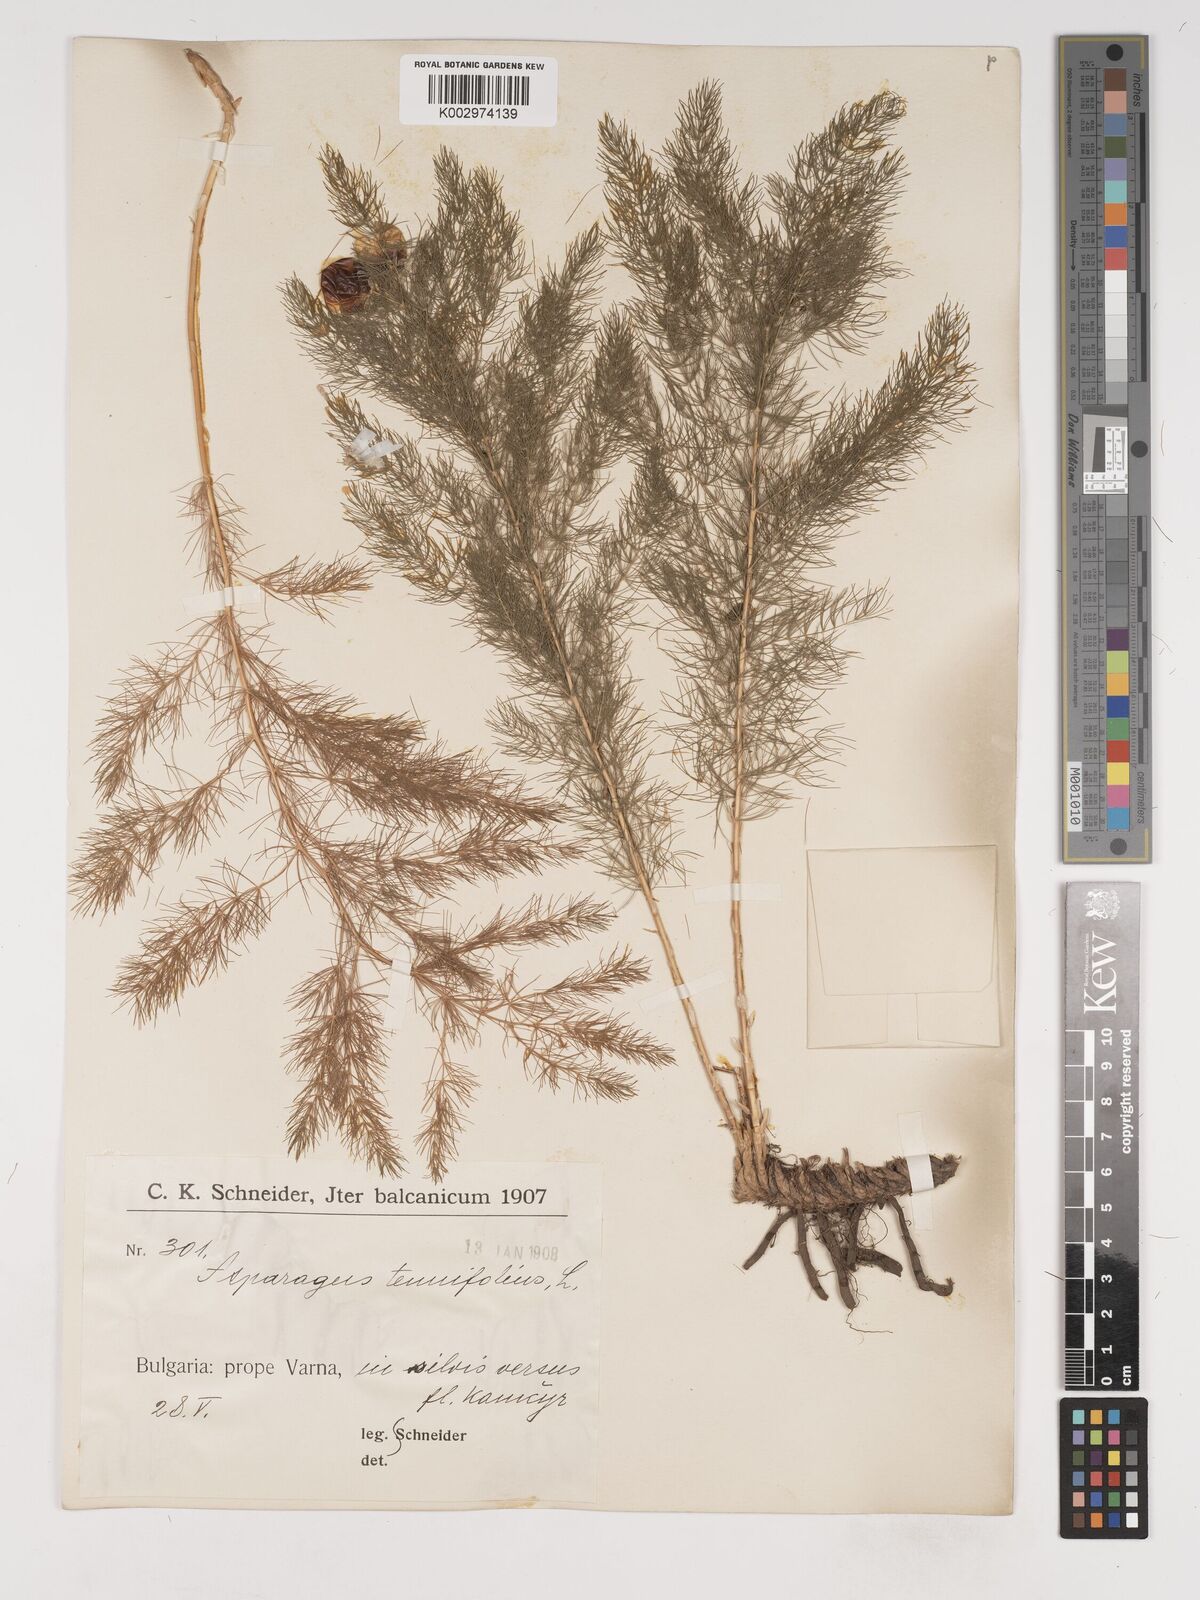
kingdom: Plantae
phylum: Tracheophyta
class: Liliopsida
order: Asparagales
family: Asparagaceae
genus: Asparagus
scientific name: Asparagus tenuifolius
